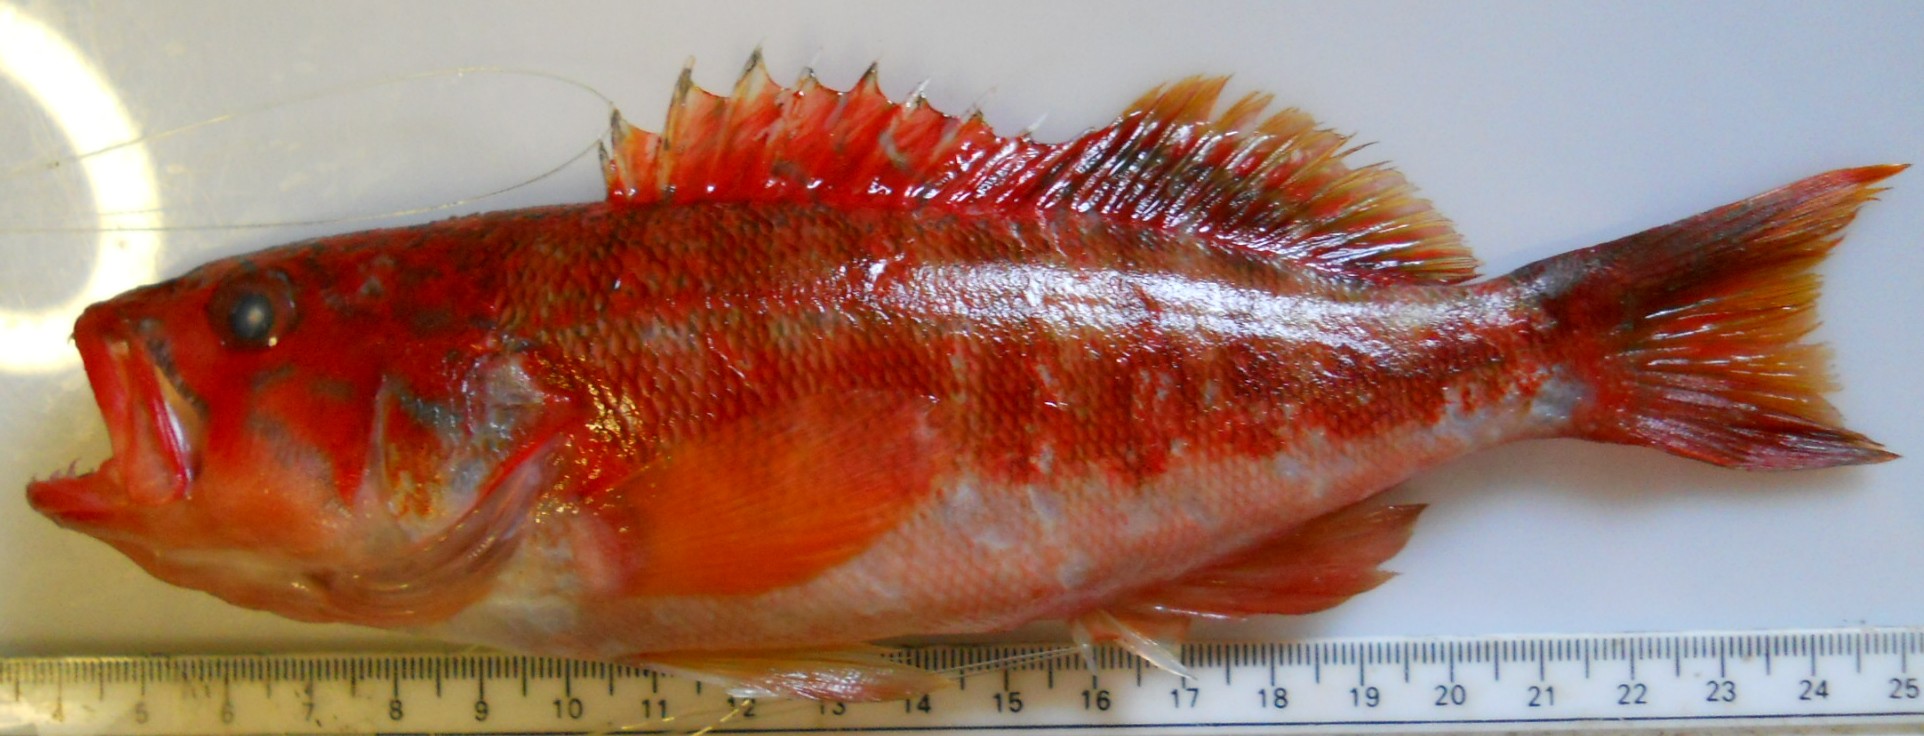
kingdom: Animalia
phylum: Chordata
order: Perciformes
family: Serranidae
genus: Serranus
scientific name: Serranus novemcinctus
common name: Barred rockcod
